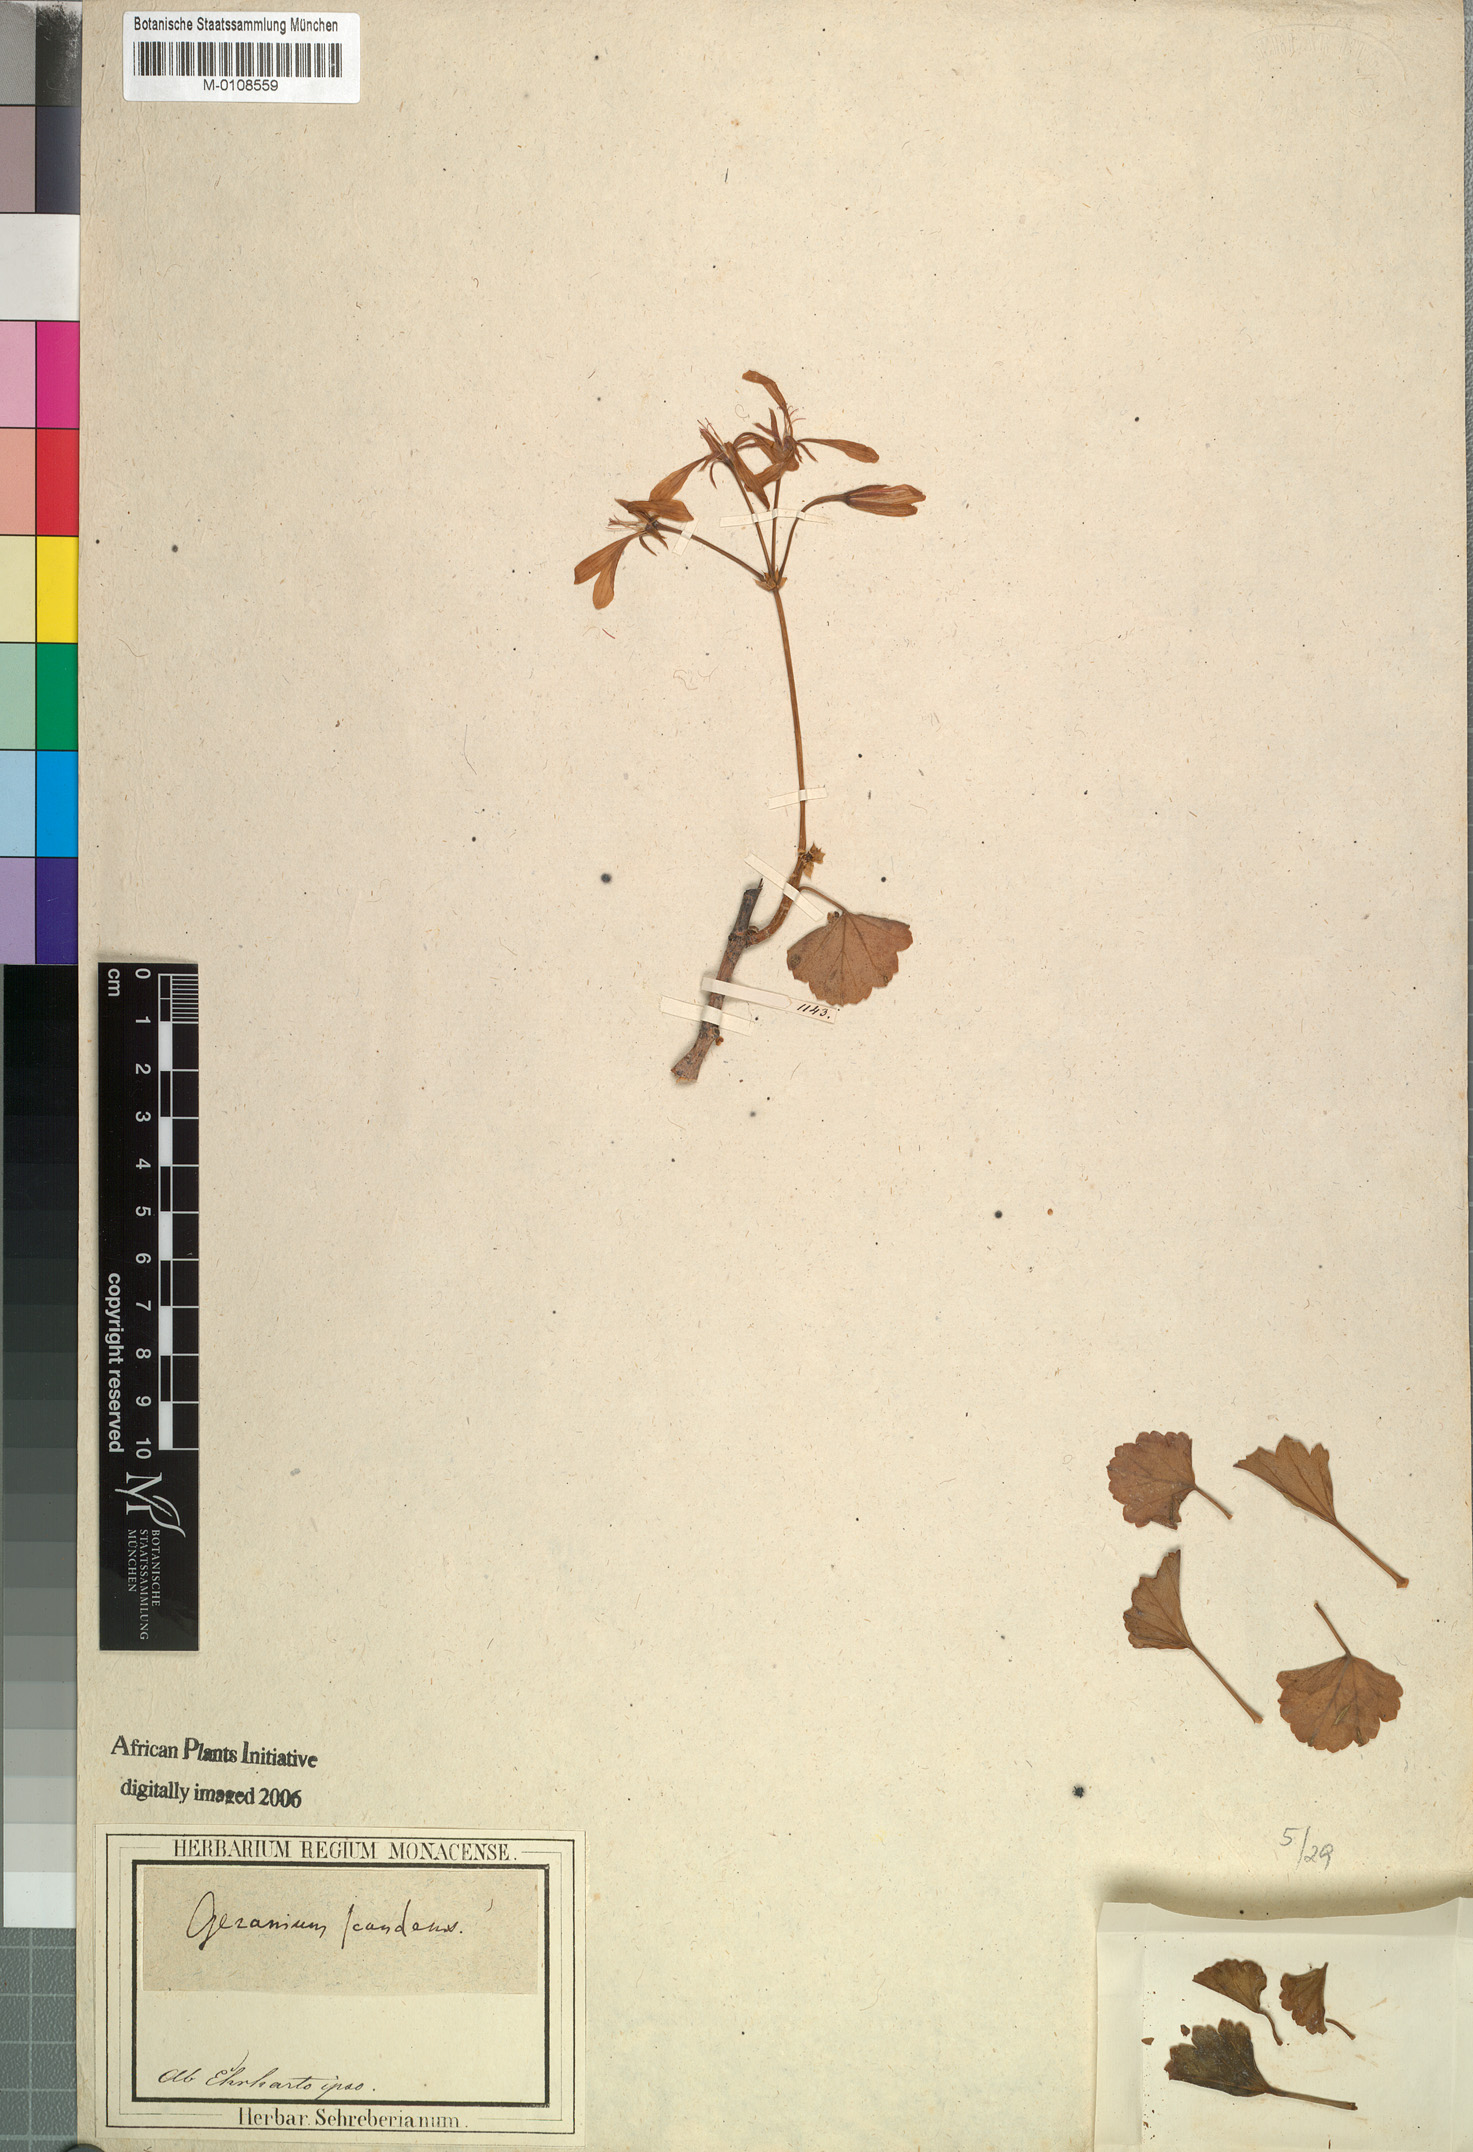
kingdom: Plantae
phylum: Tracheophyta
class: Magnoliopsida
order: Geraniales
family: Geraniaceae
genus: Pelargonium
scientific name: Pelargonium scandens
